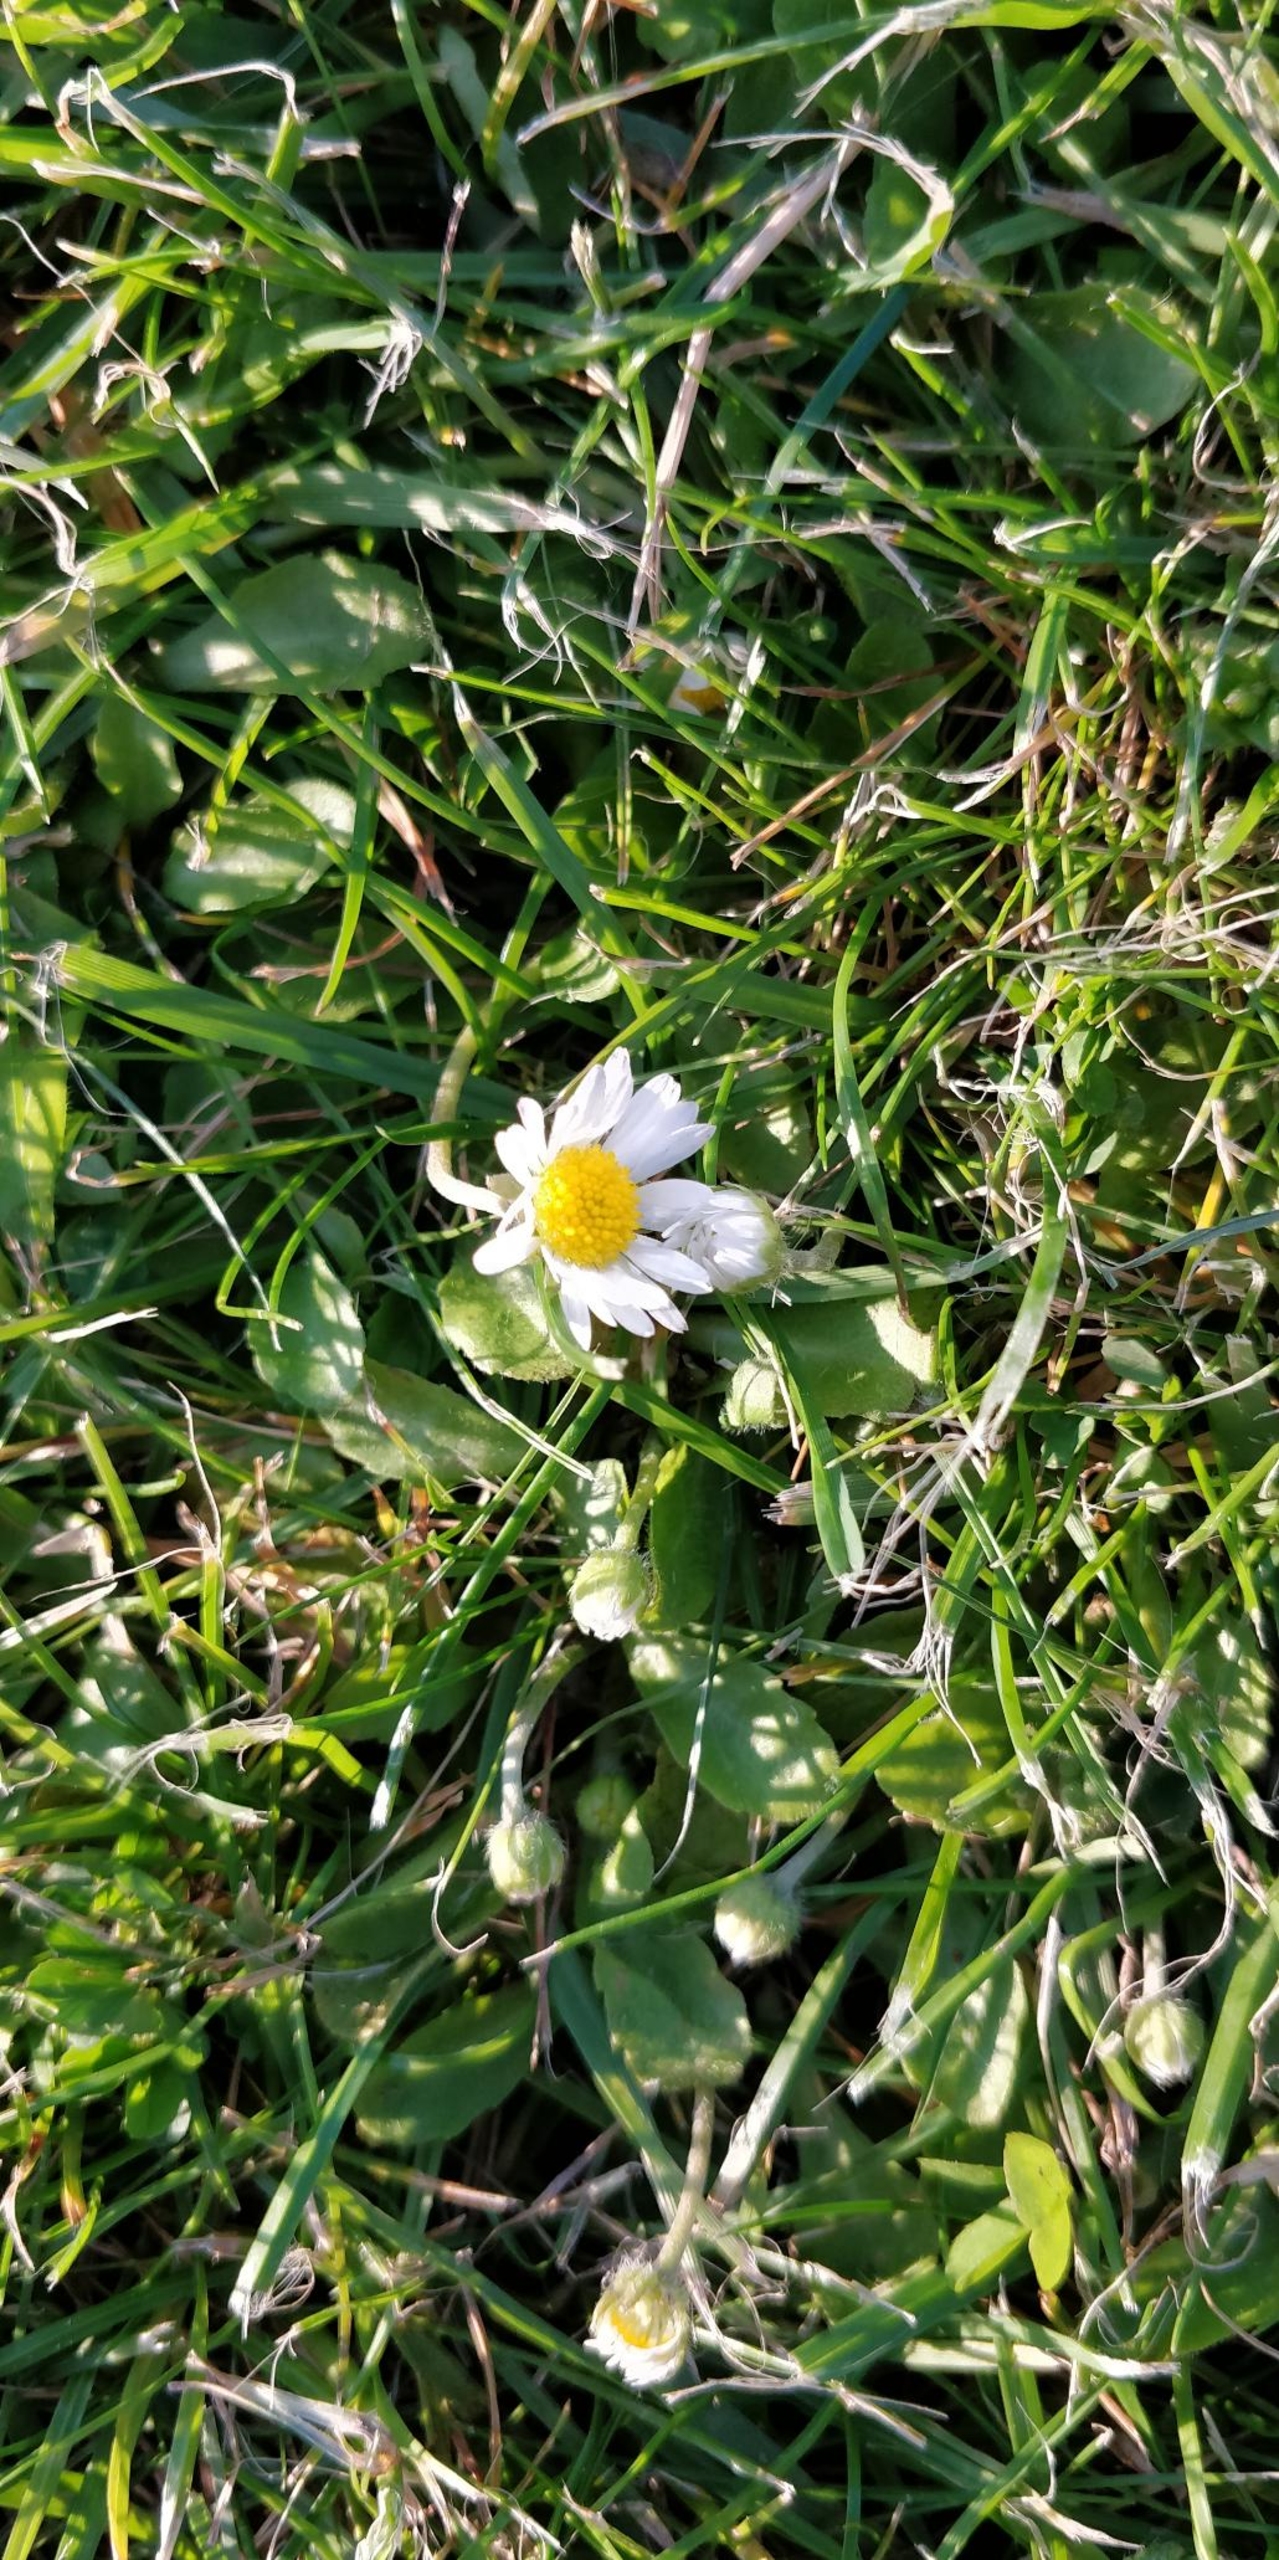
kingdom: Plantae
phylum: Tracheophyta
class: Magnoliopsida
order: Asterales
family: Asteraceae
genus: Bellis
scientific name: Bellis perennis
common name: Tusindfryd
